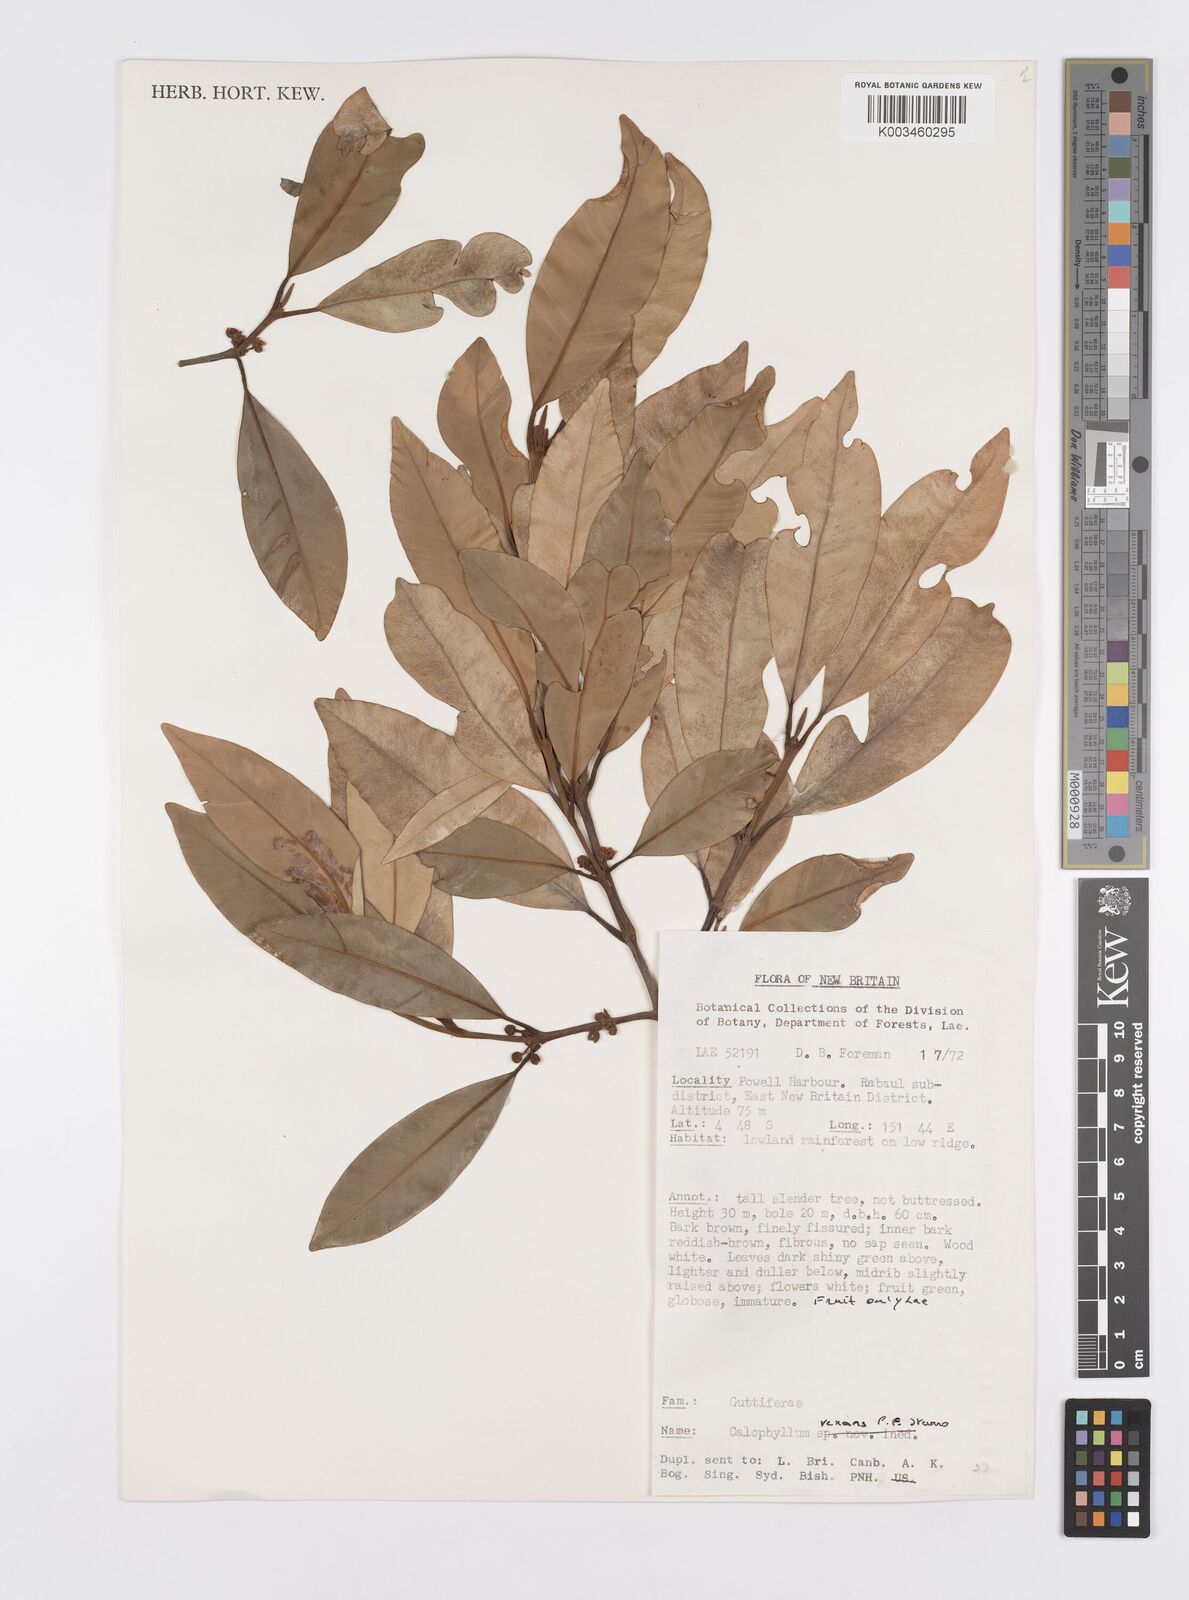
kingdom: Plantae
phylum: Tracheophyta
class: Magnoliopsida
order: Malpighiales
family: Calophyllaceae
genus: Calophyllum
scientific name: Calophyllum vexans
